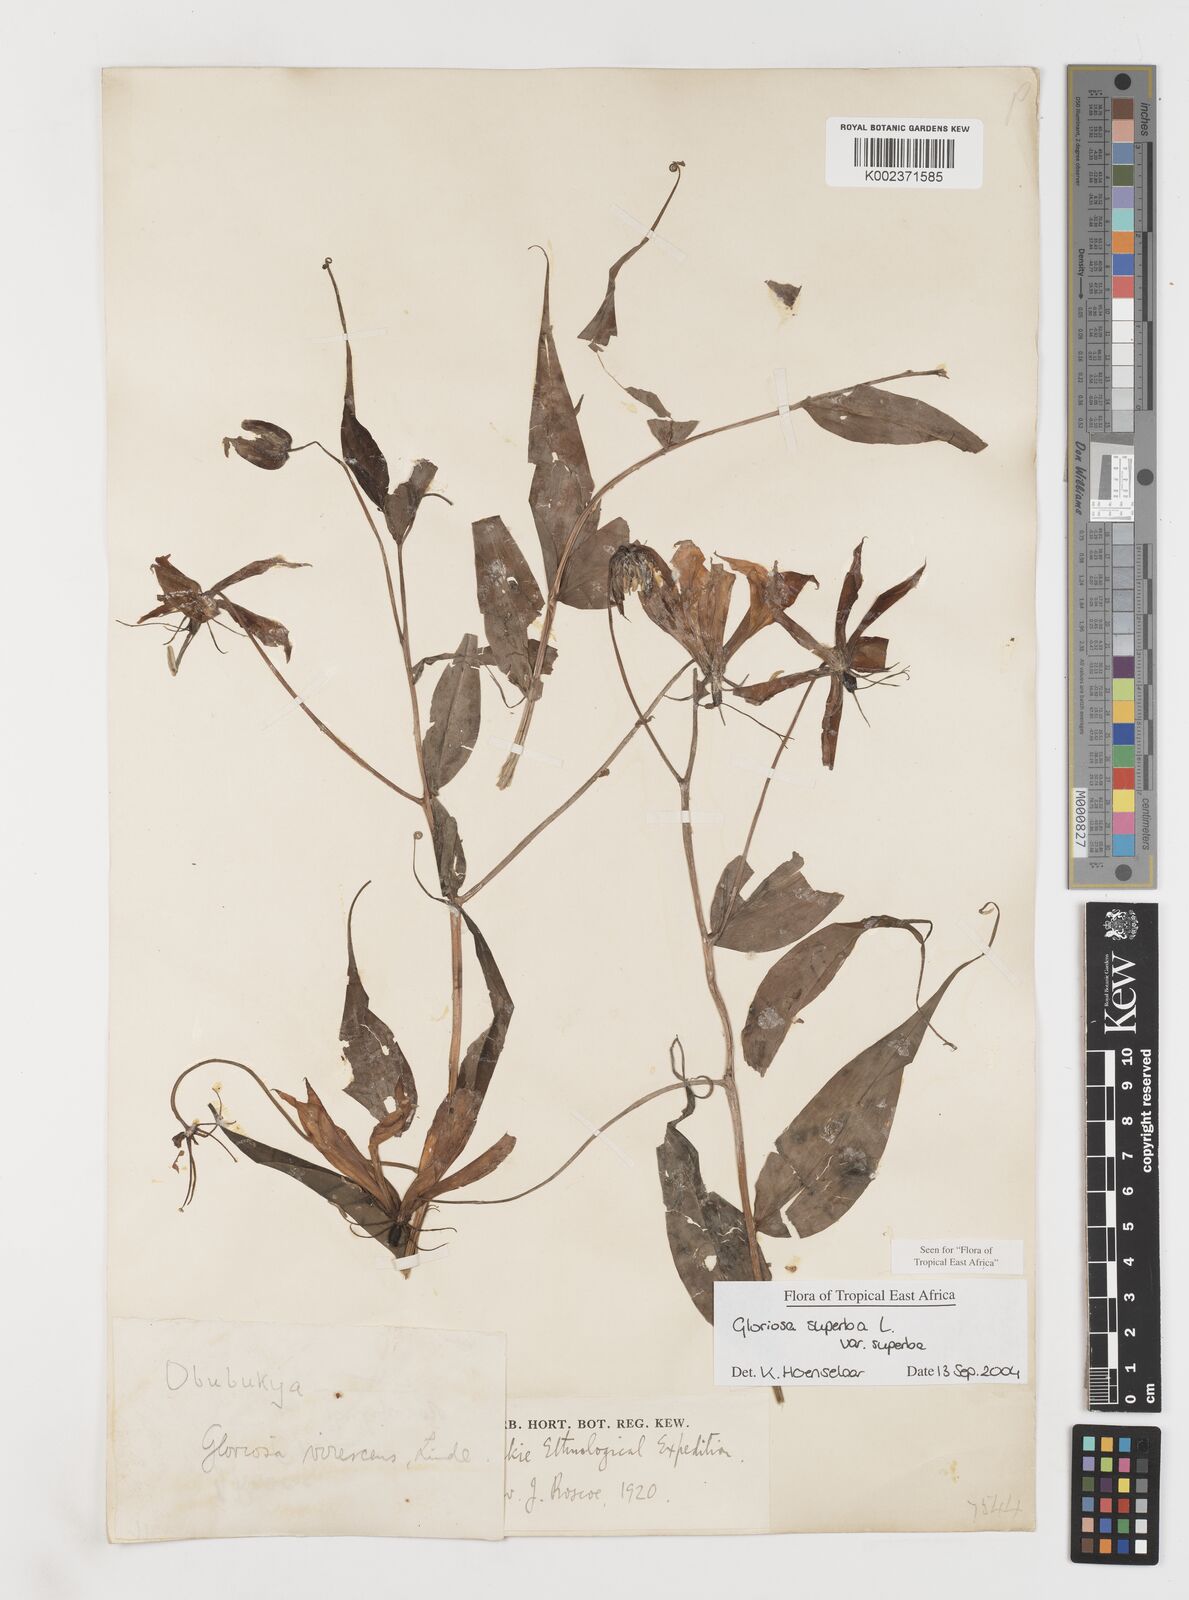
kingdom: Plantae
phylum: Tracheophyta
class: Liliopsida
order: Liliales
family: Colchicaceae
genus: Gloriosa
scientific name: Gloriosa simplex
